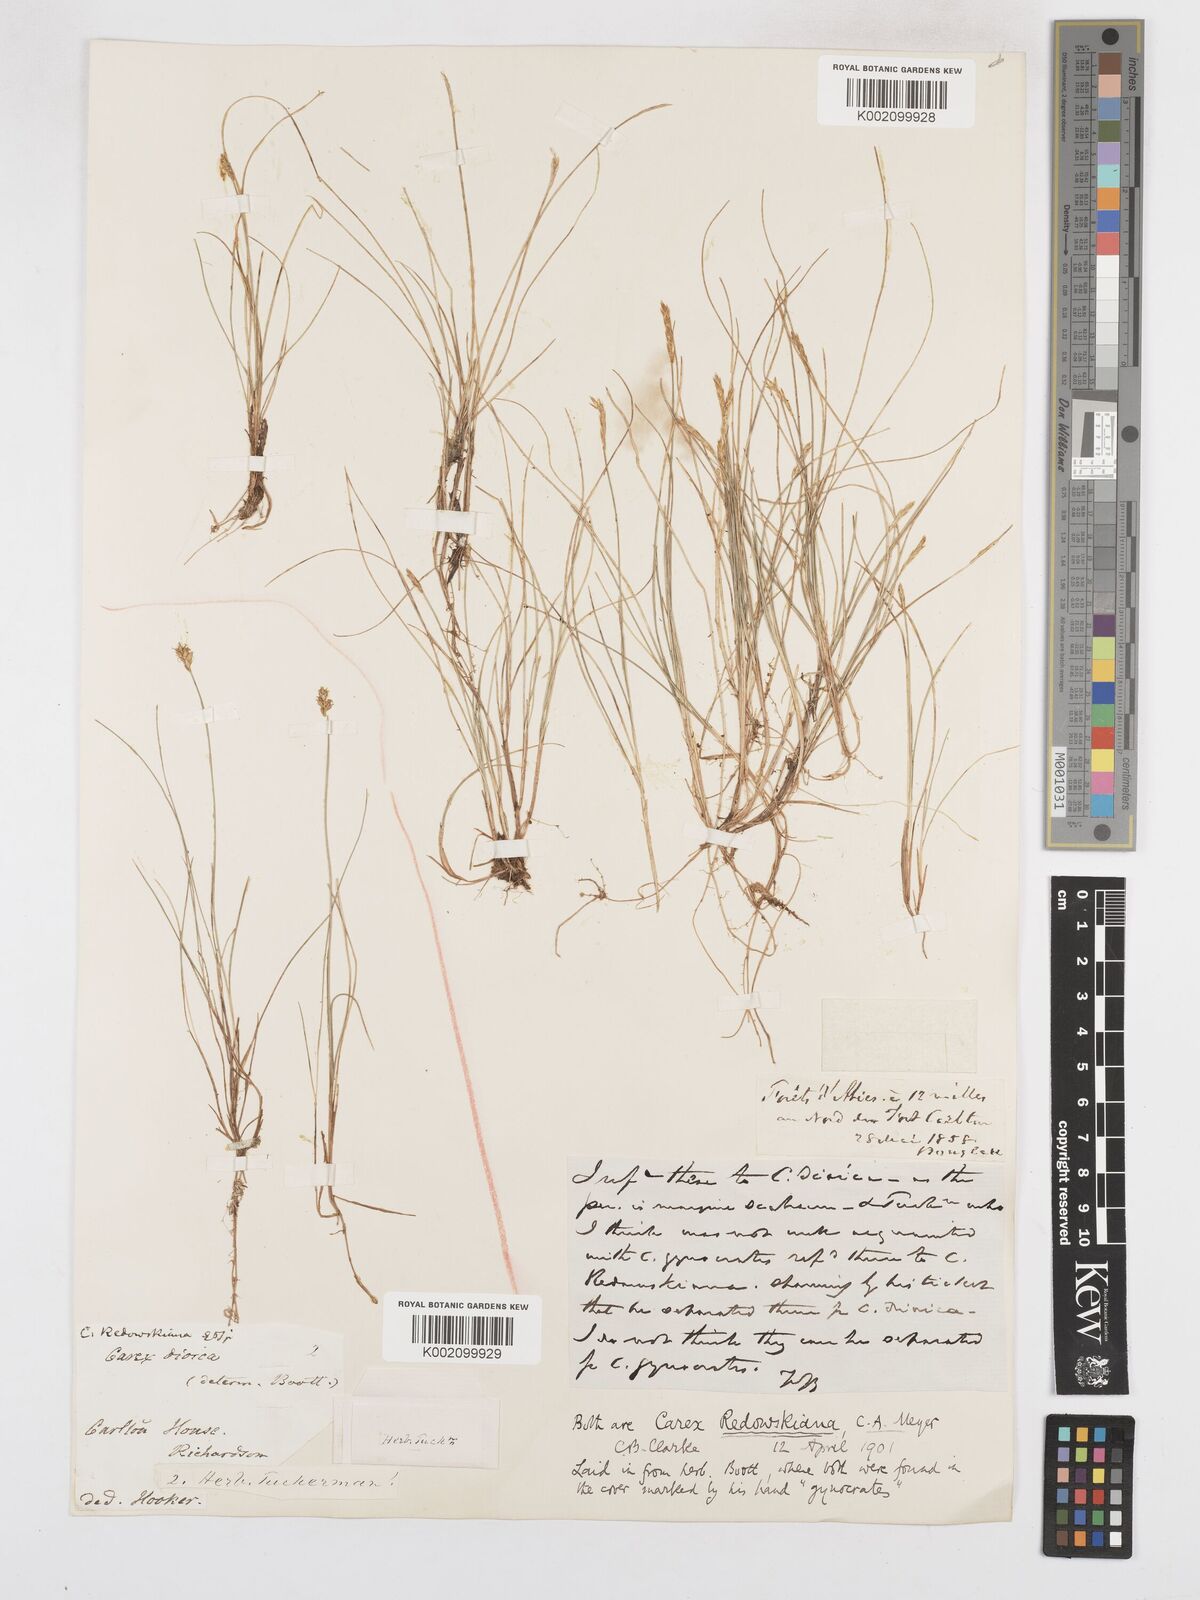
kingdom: Plantae
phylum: Tracheophyta
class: Liliopsida
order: Poales
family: Cyperaceae
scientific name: Cyperaceae
